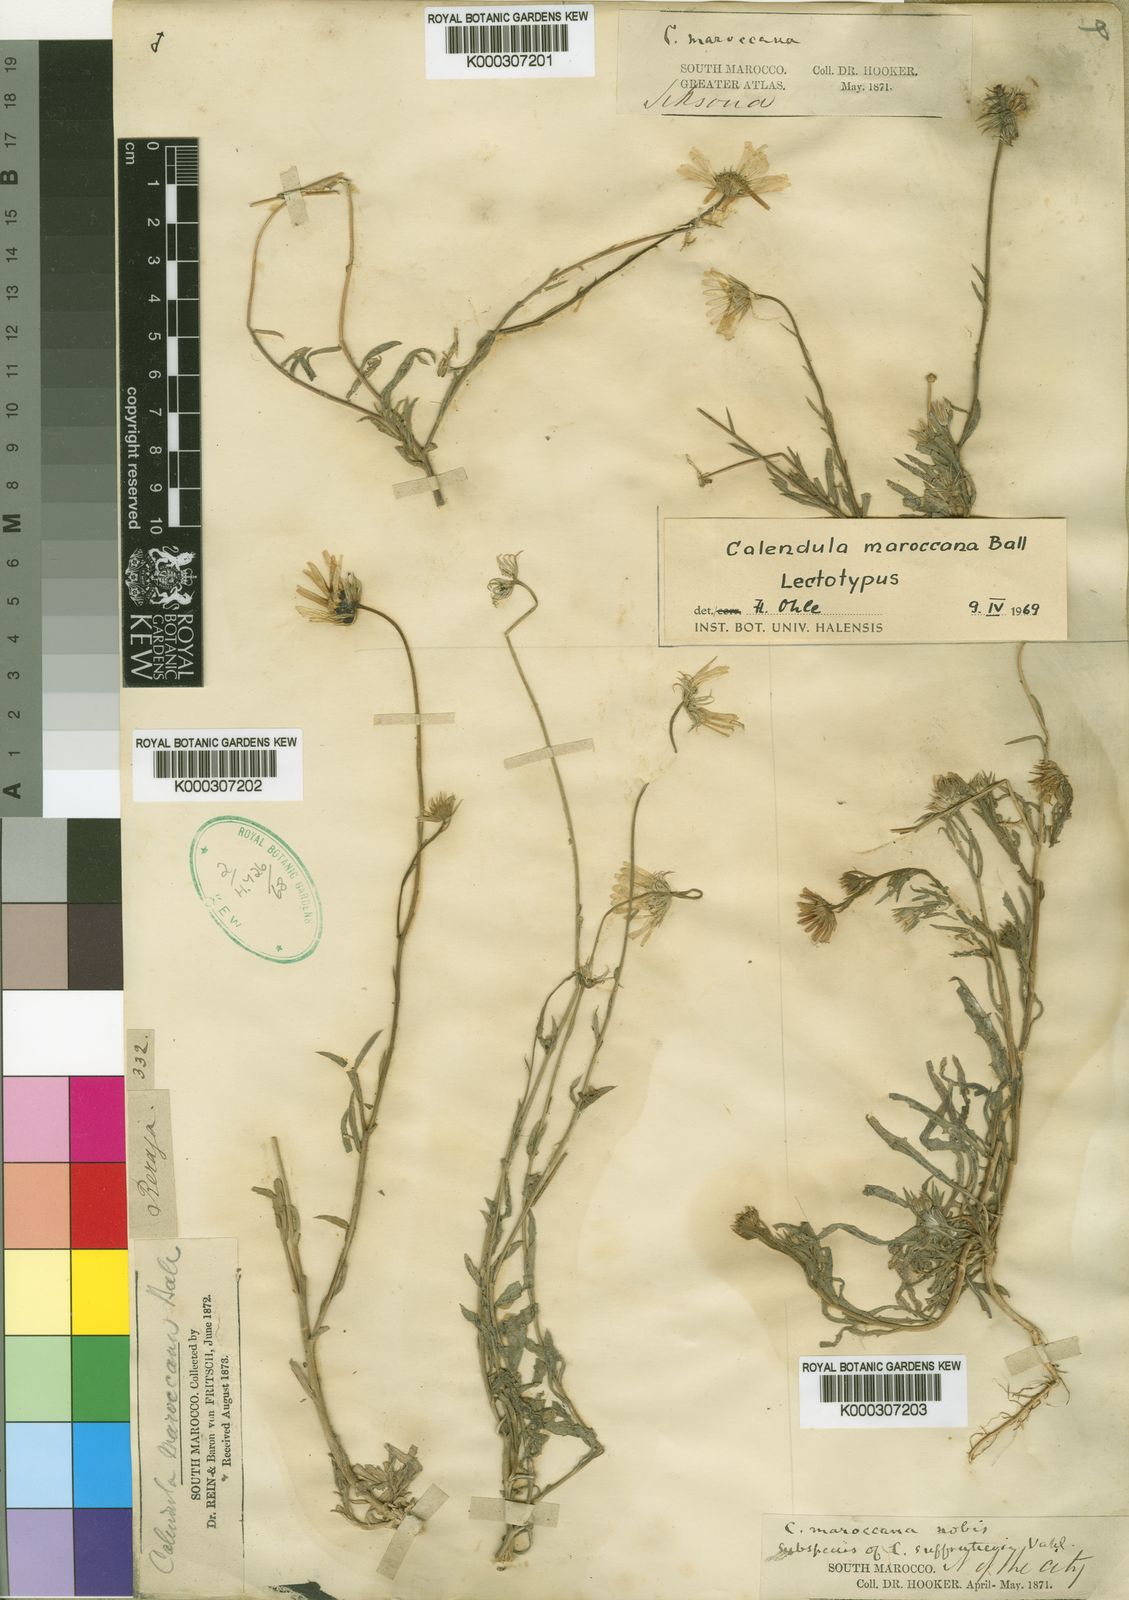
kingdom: Plantae
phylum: Tracheophyta
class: Magnoliopsida
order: Asterales
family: Asteraceae
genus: Calendula
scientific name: Calendula maroccana
